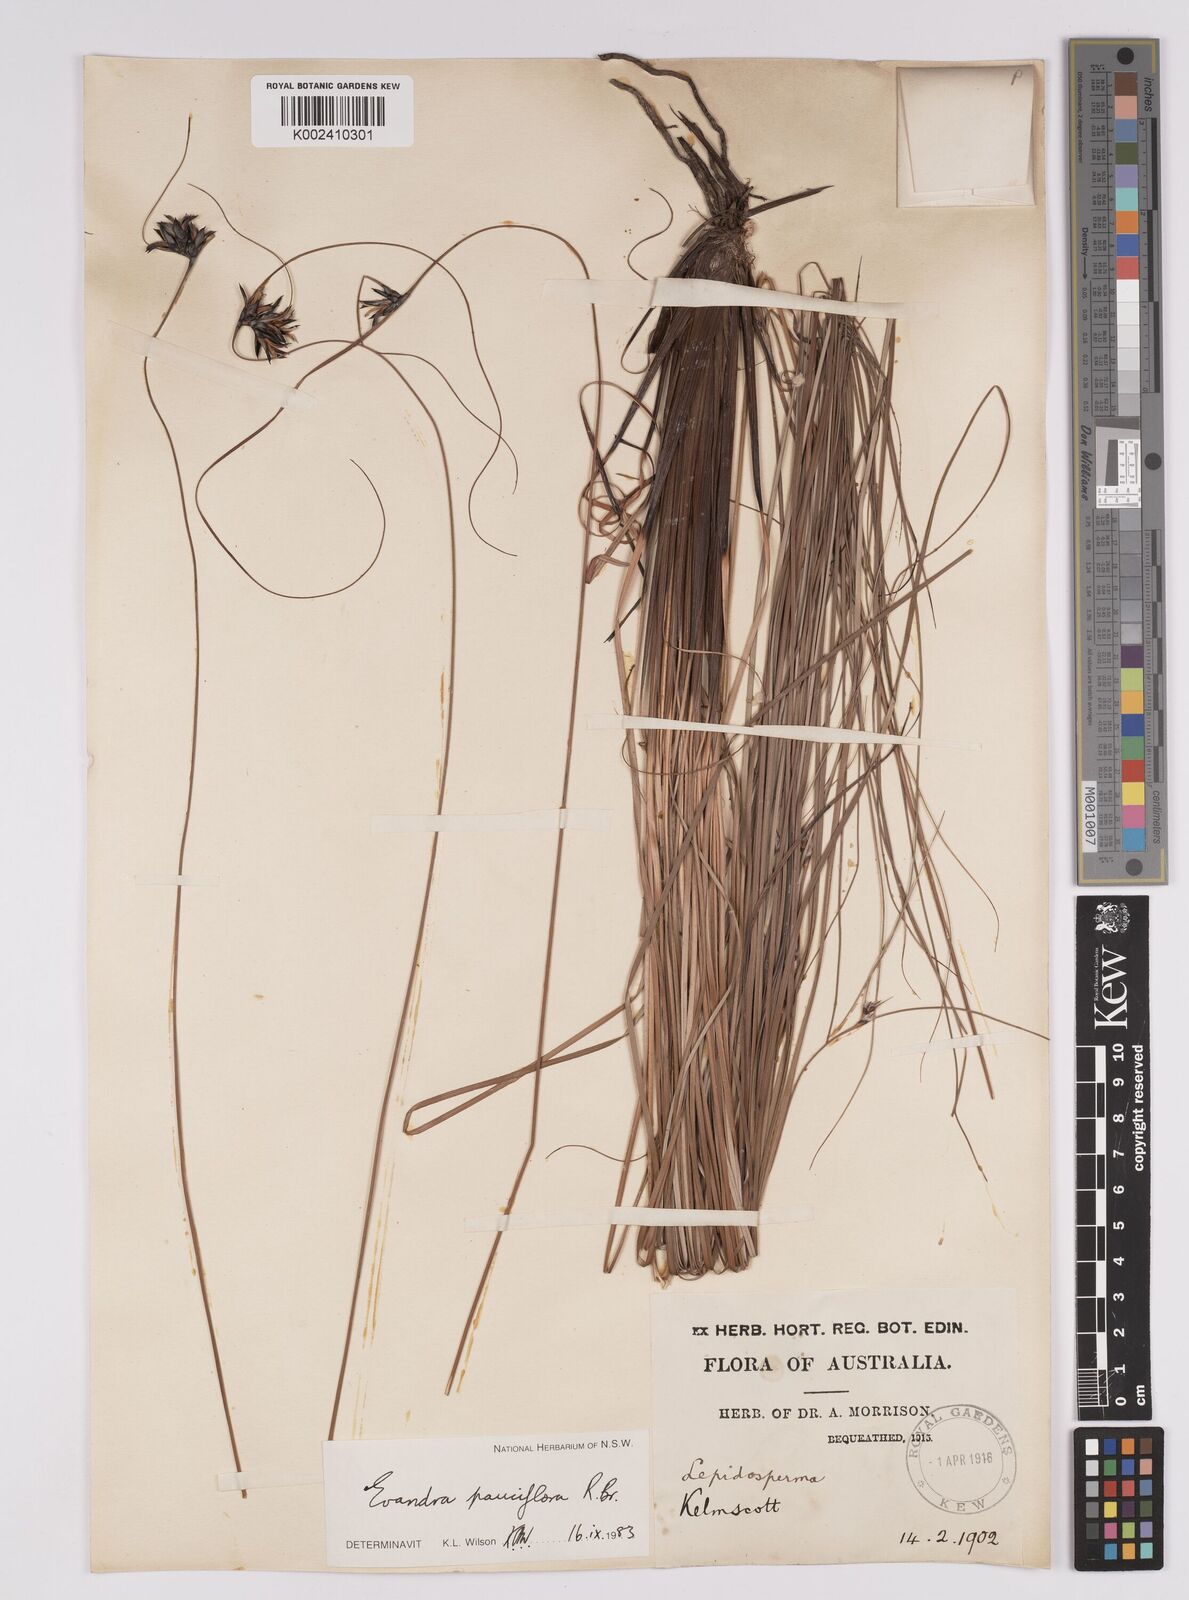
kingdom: Plantae
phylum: Tracheophyta
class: Liliopsida
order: Poales
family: Cyperaceae
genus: Evandra
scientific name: Evandra pauciflora
